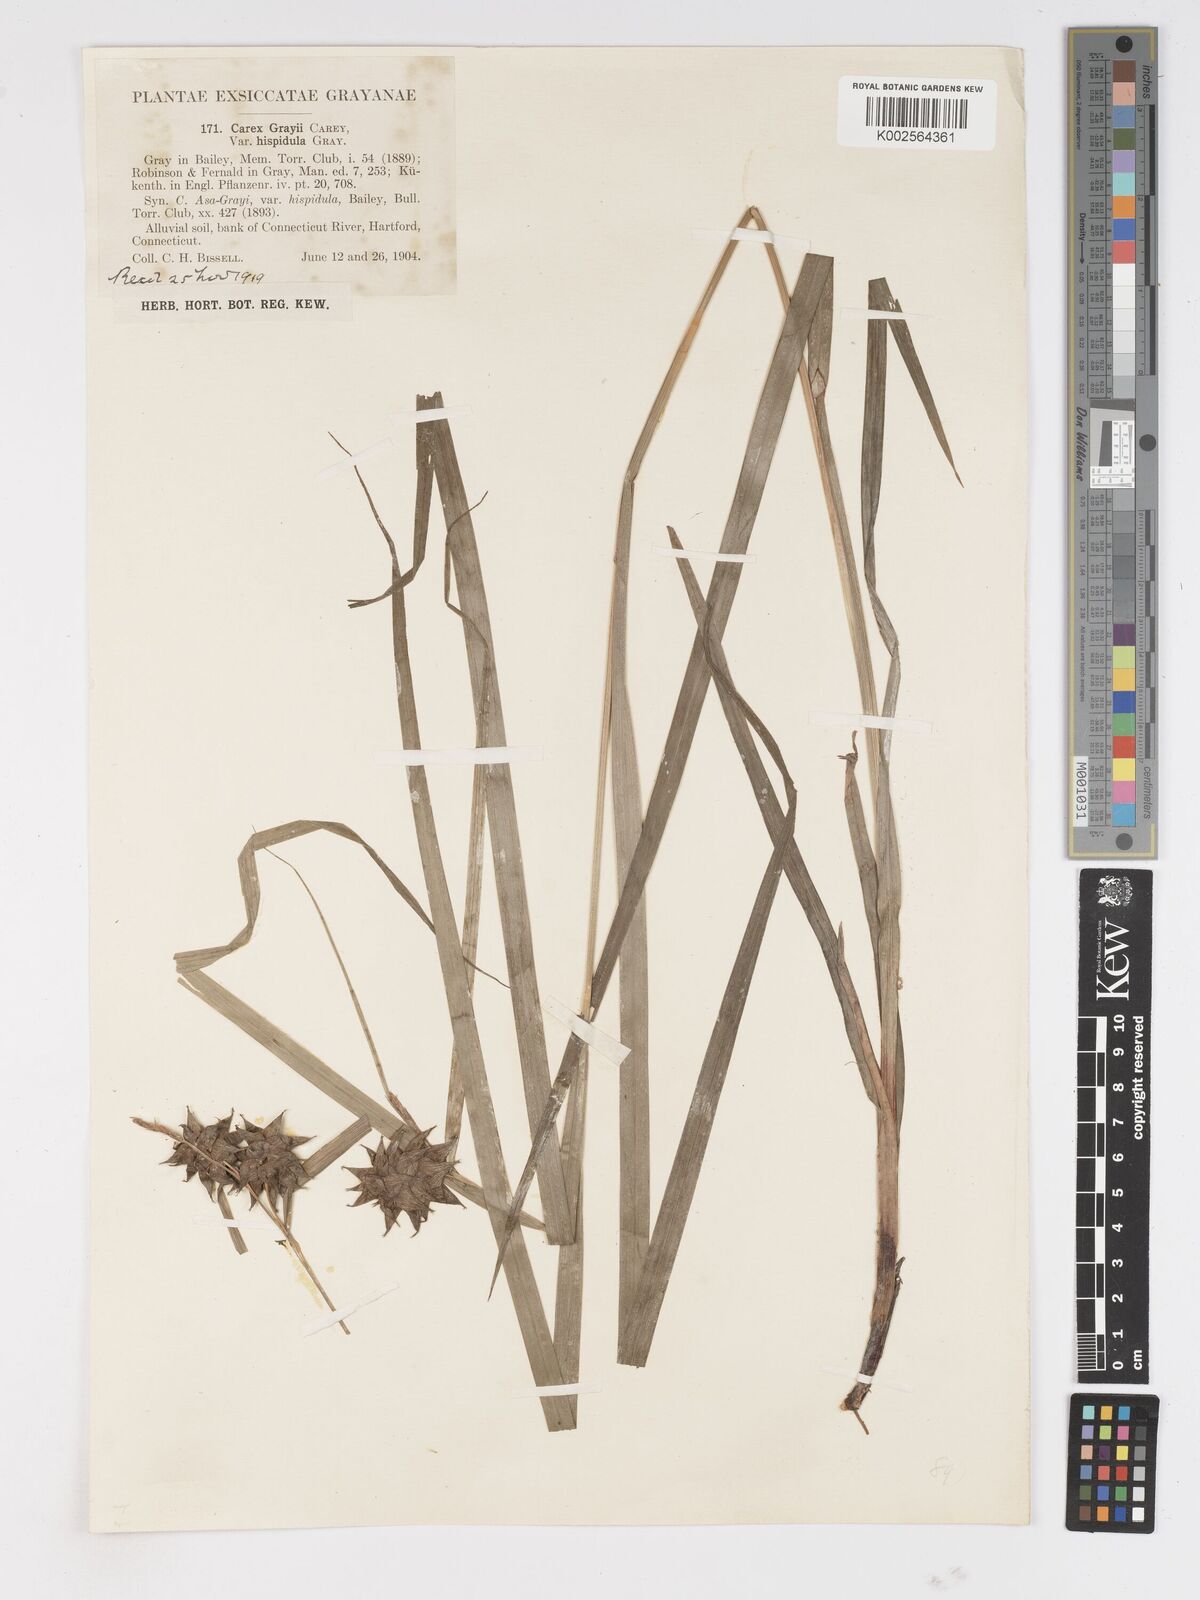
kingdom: Plantae
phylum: Tracheophyta
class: Liliopsida
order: Poales
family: Cyperaceae
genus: Carex
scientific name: Carex grayi
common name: Asa gray's sedge
